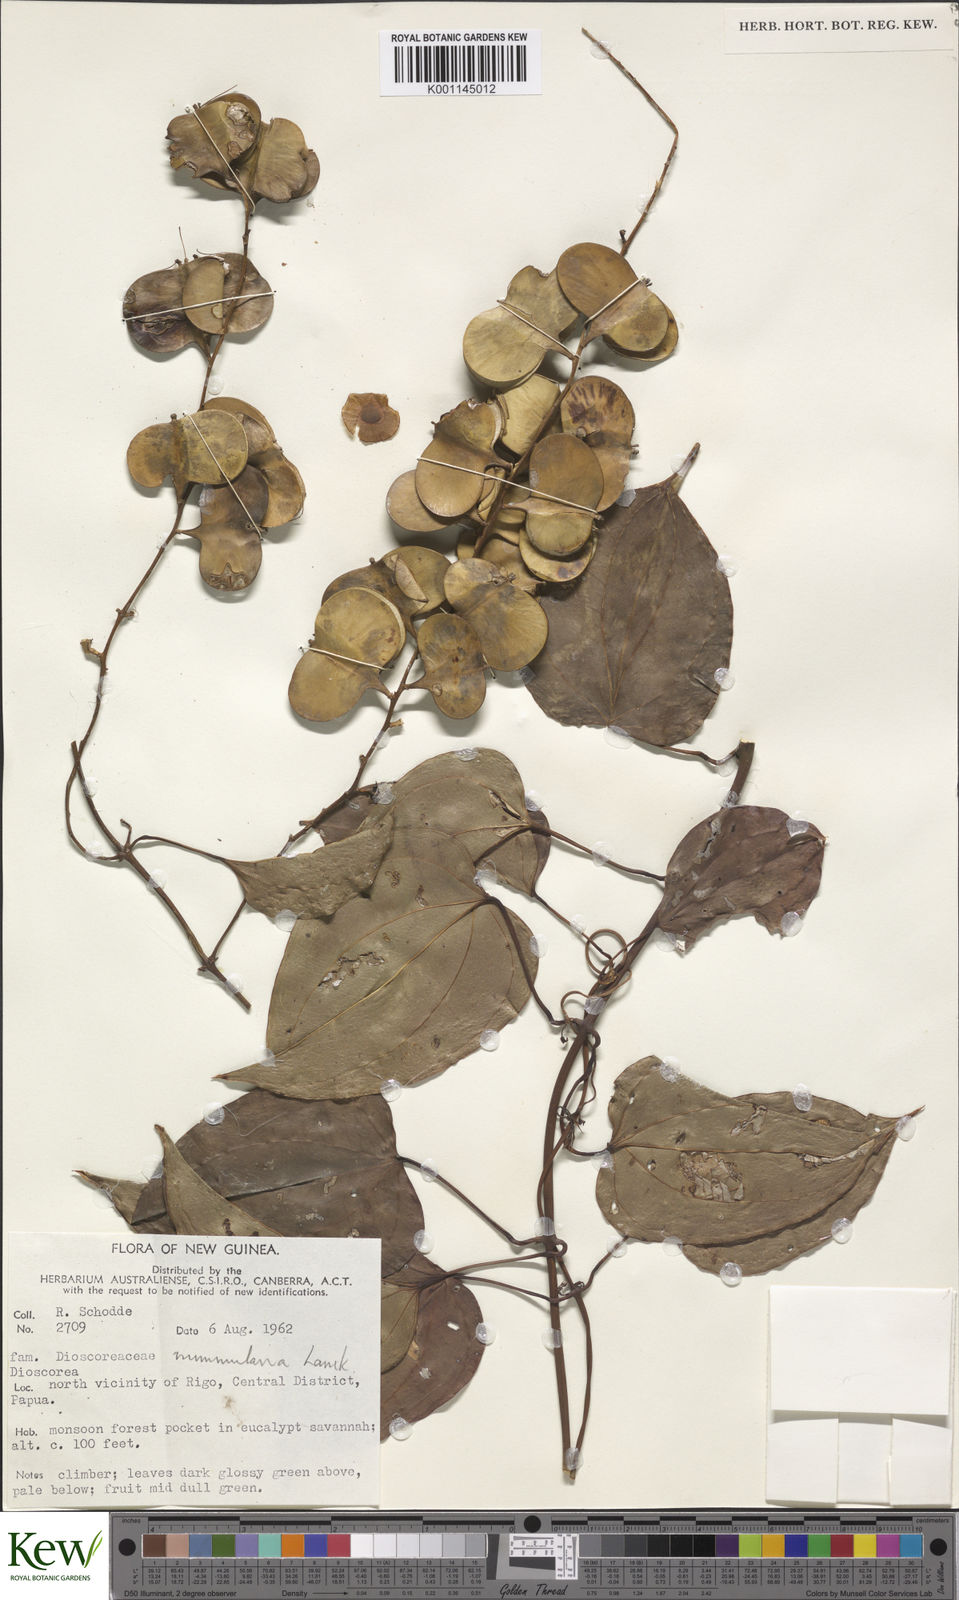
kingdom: Plantae
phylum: Tracheophyta
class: Liliopsida
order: Dioscoreales
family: Dioscoreaceae
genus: Dioscorea
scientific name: Dioscorea nummularia
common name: Pacific yam
